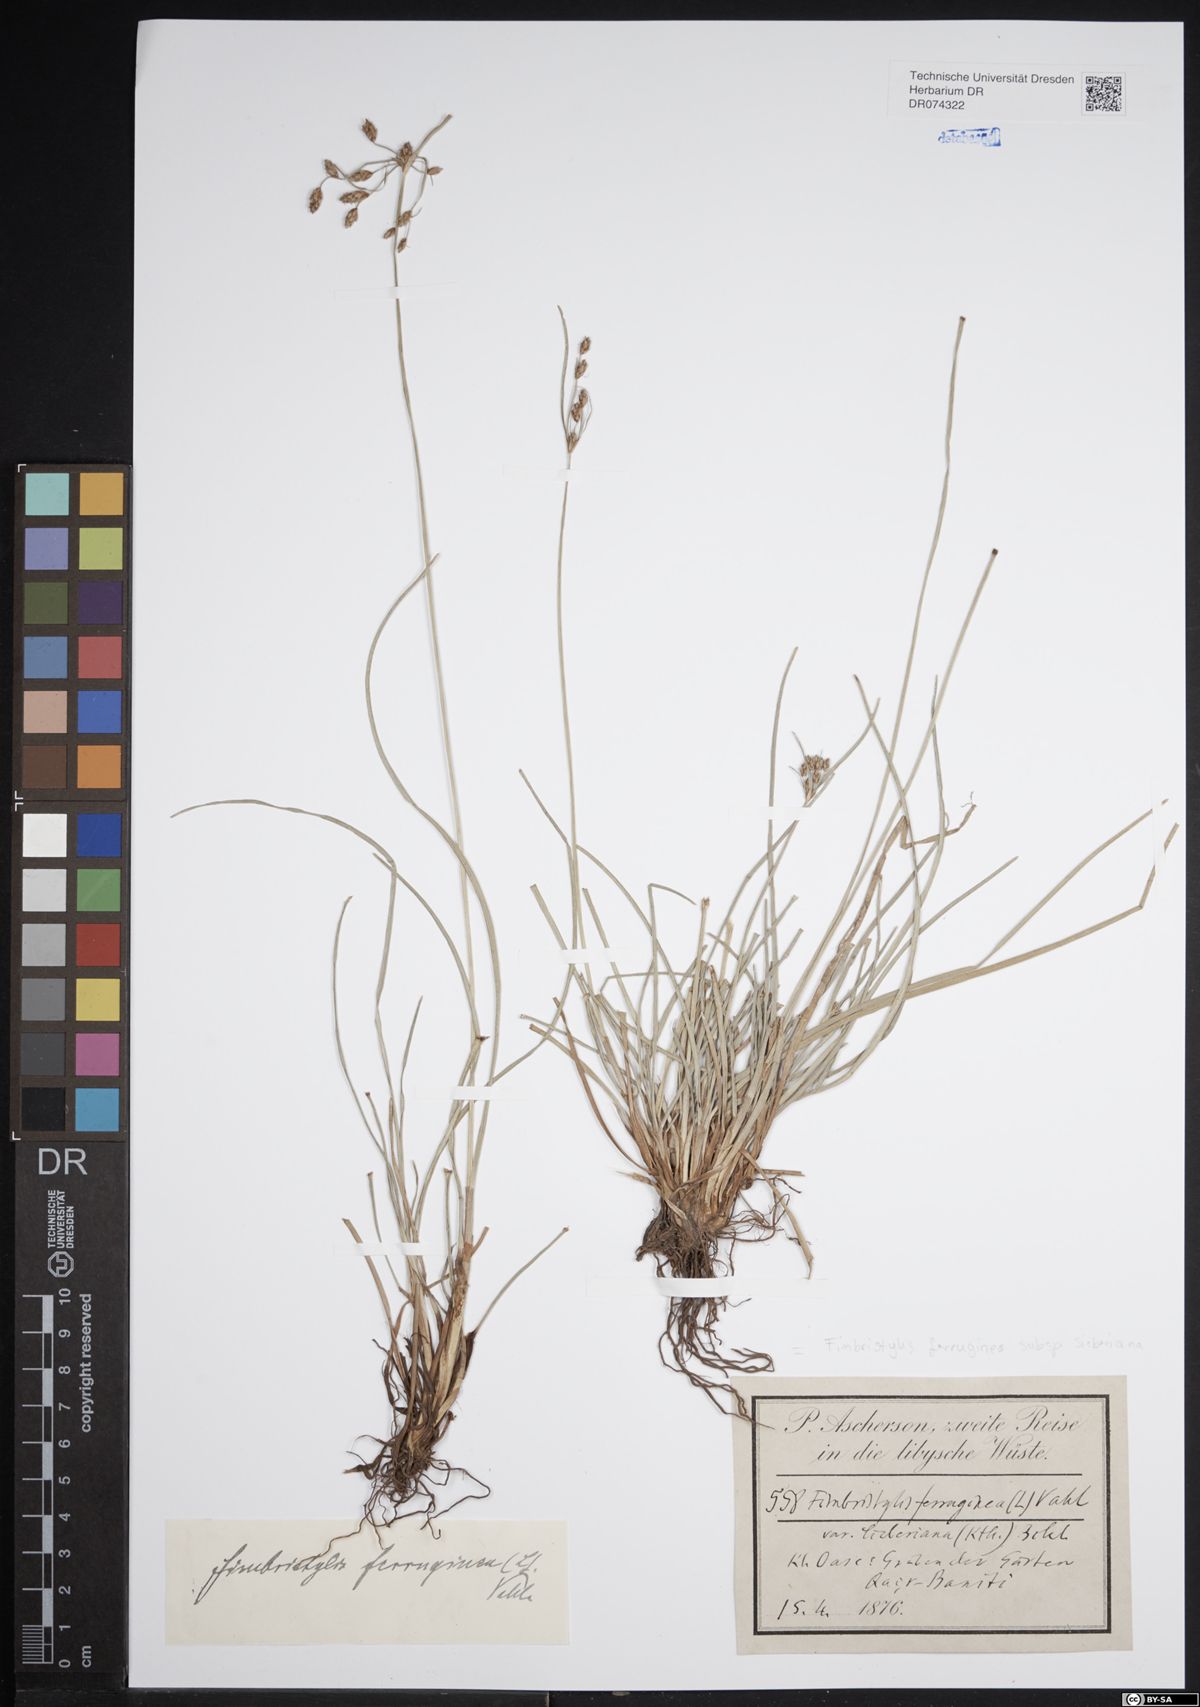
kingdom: Plantae
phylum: Tracheophyta
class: Liliopsida
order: Poales
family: Cyperaceae
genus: Fimbristylis
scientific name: Fimbristylis ferruginea
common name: West indian fimbry
